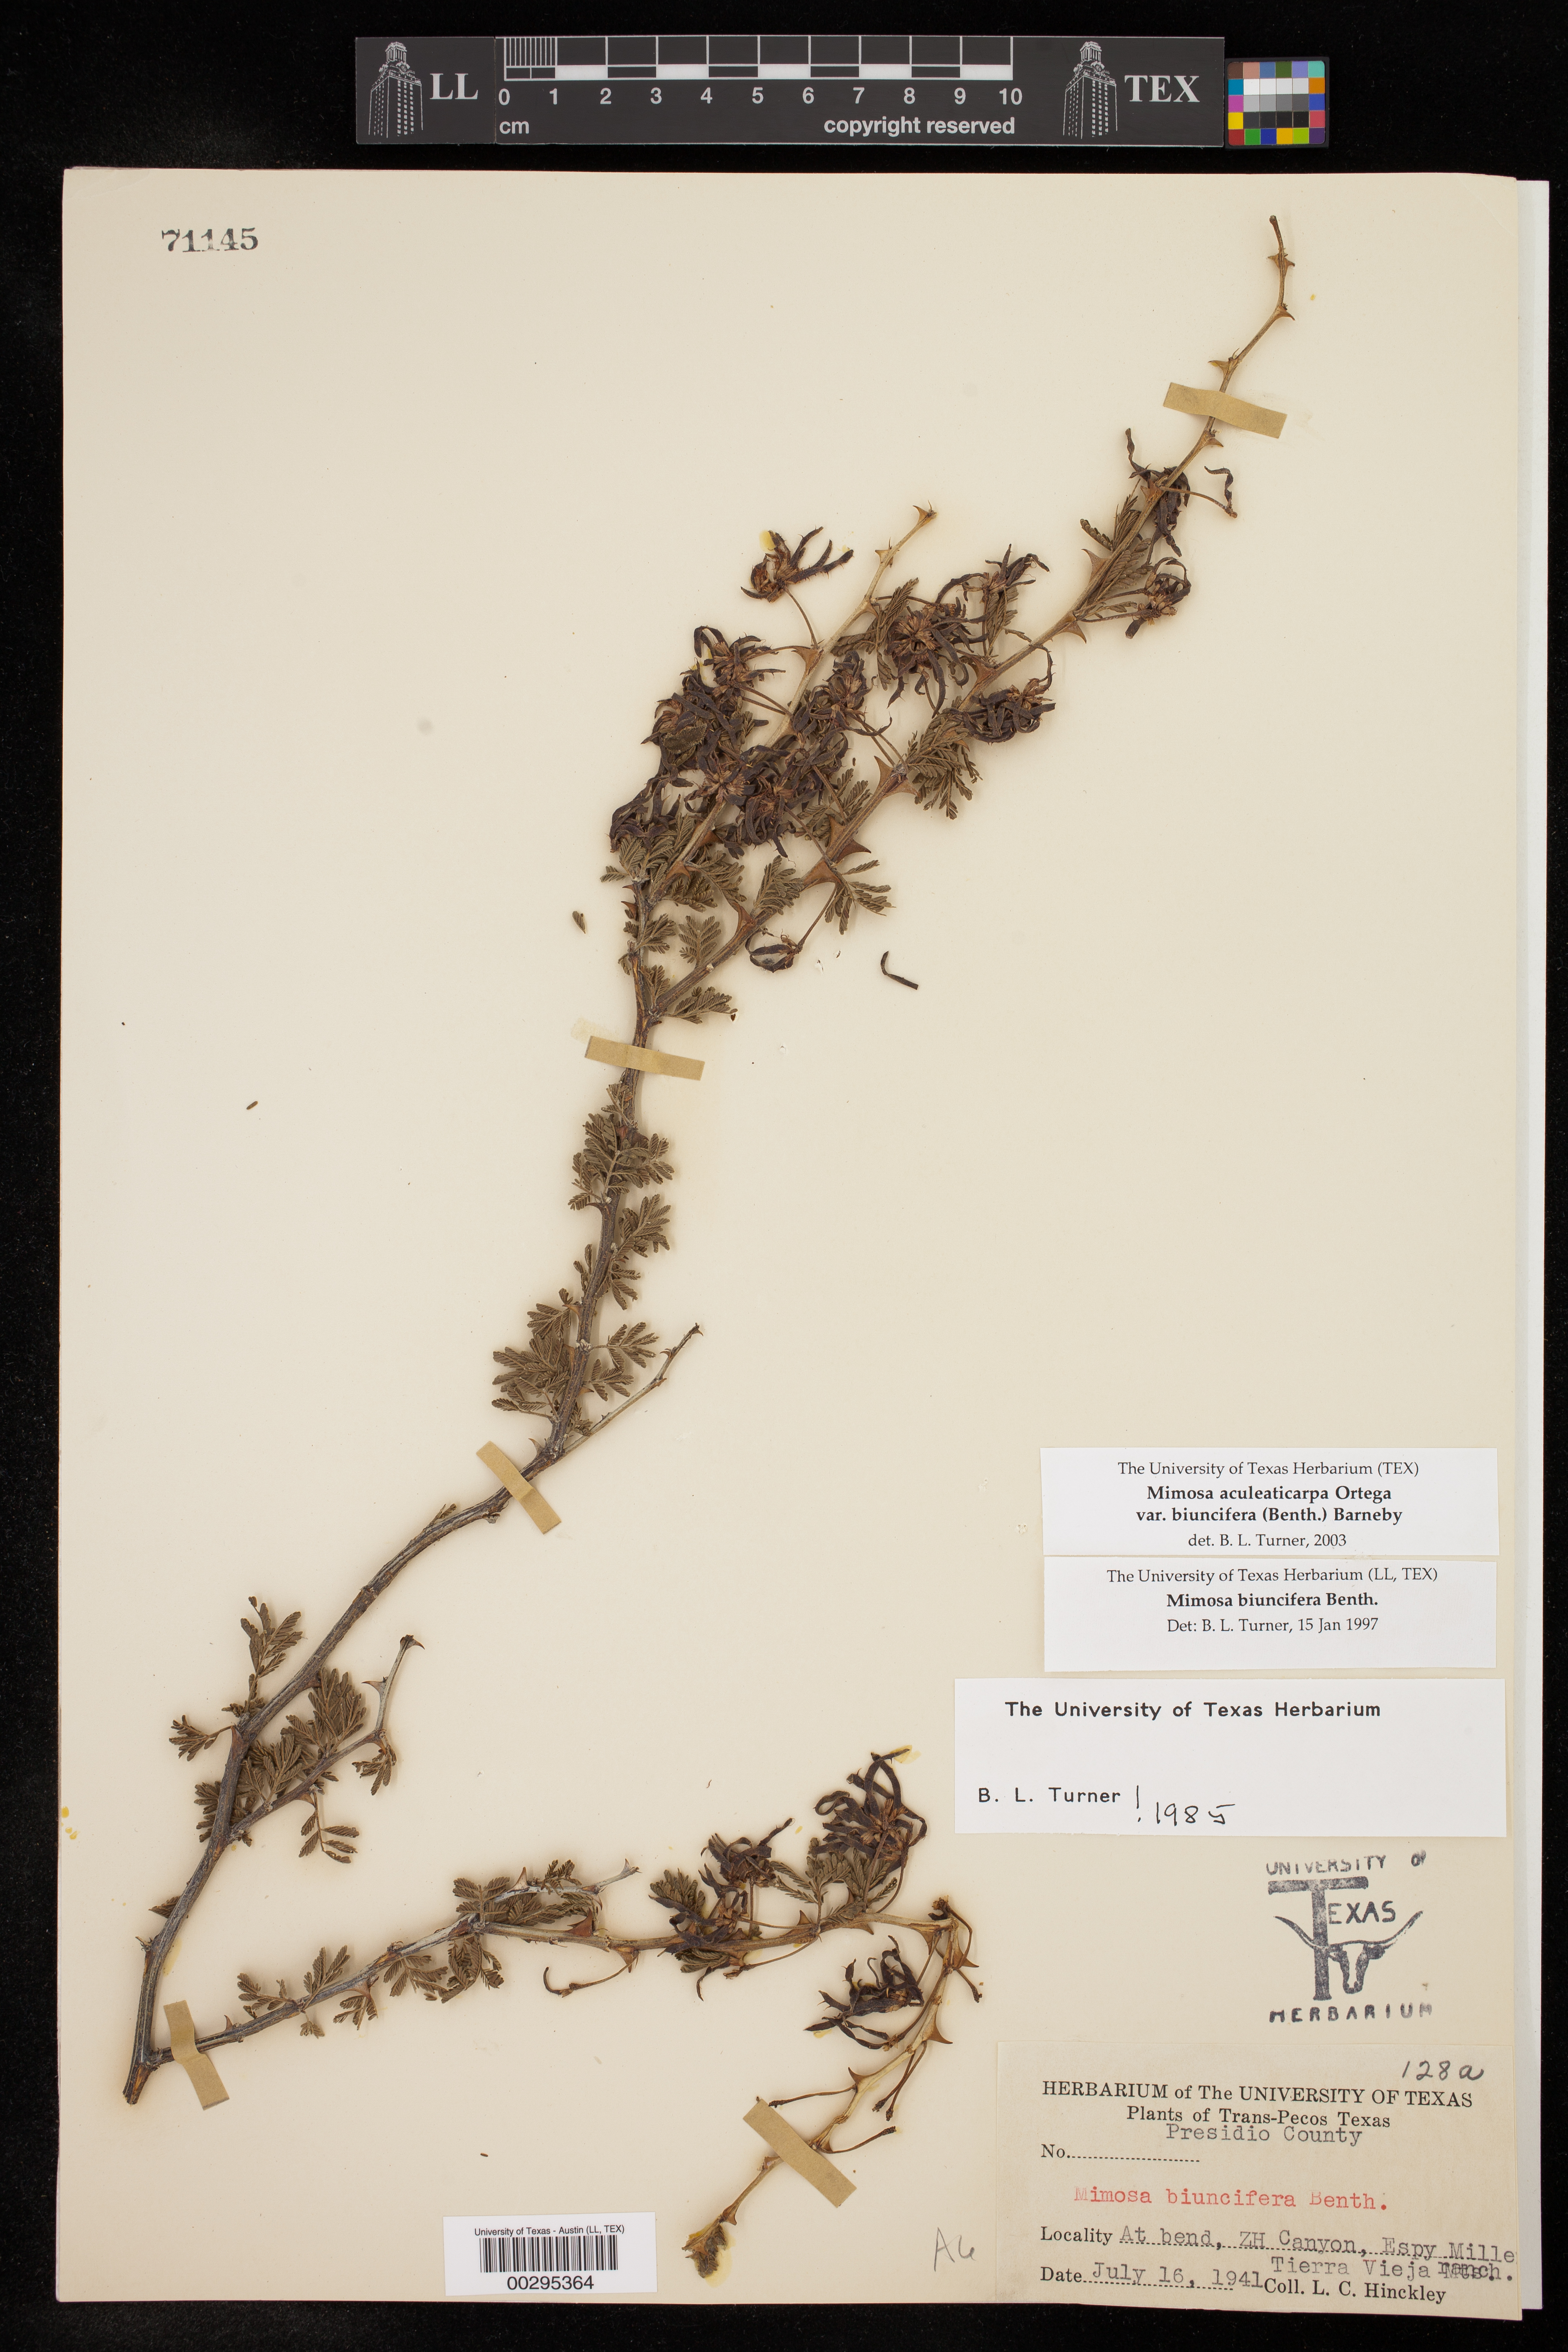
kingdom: Plantae
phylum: Tracheophyta
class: Magnoliopsida
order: Fabales
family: Fabaceae
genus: Mimosa
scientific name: Mimosa biuncifera
